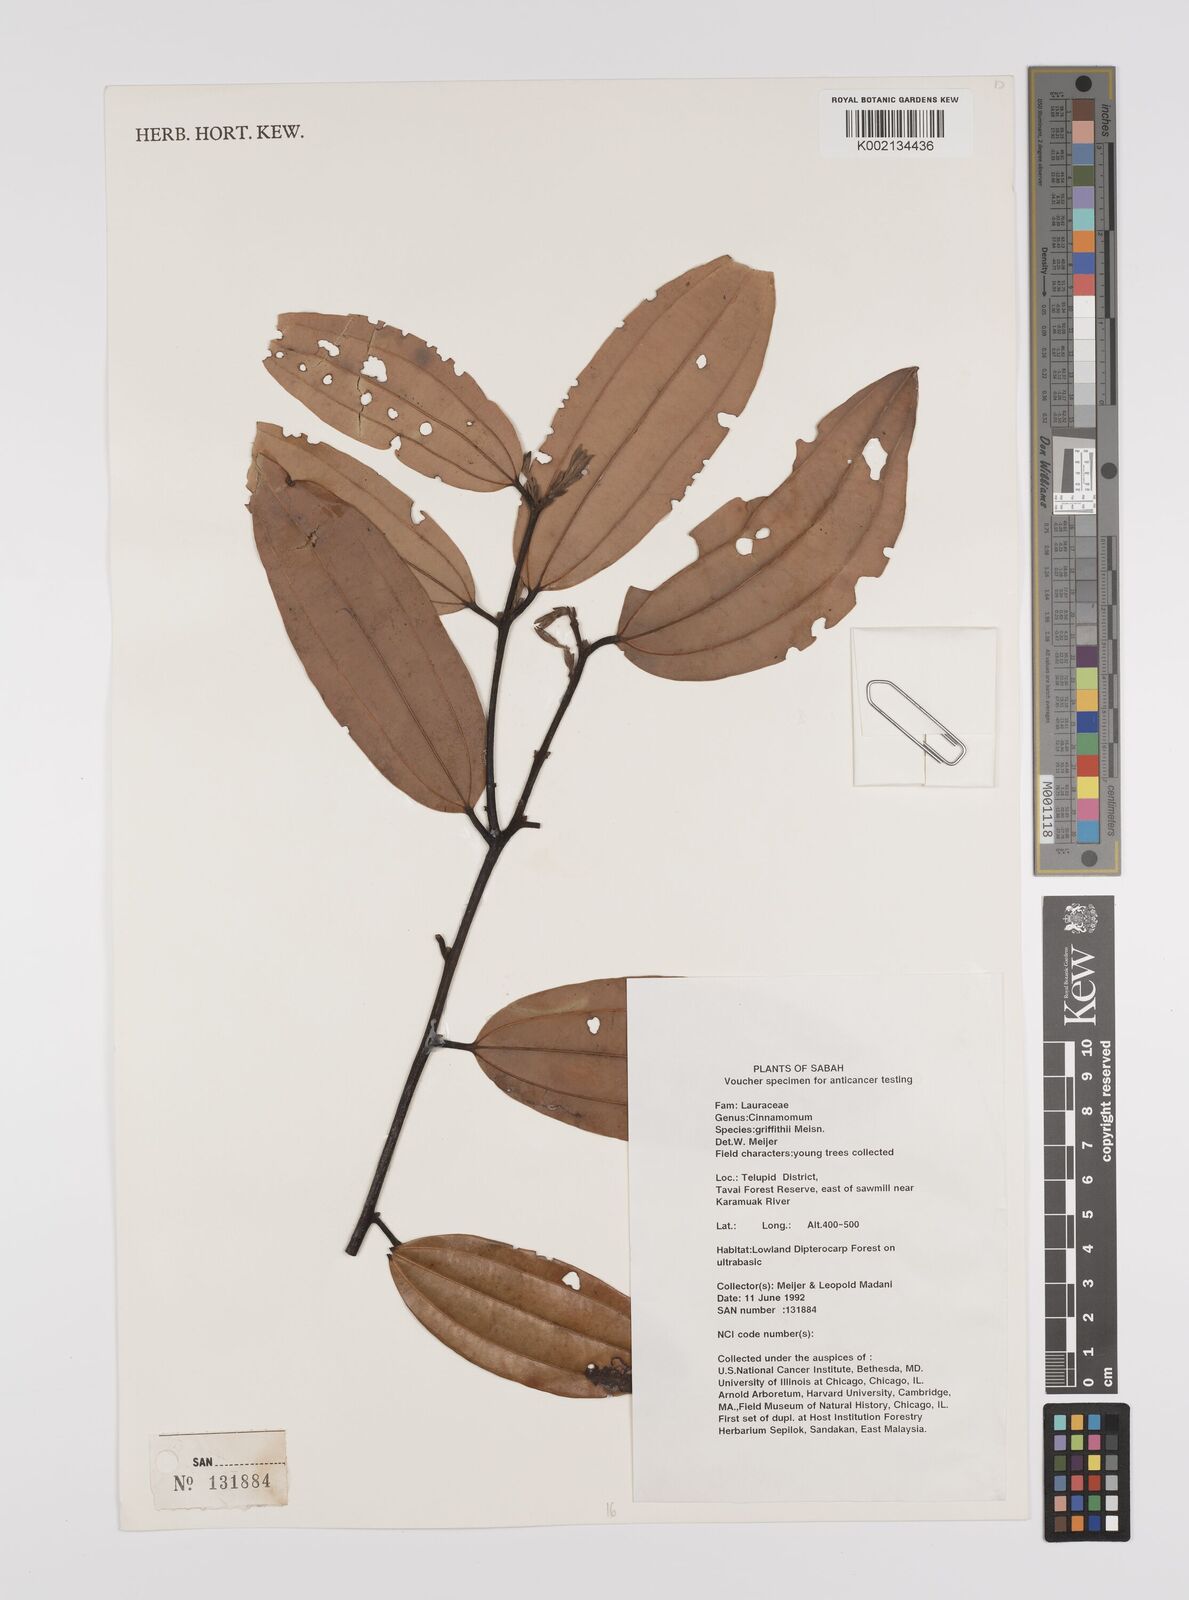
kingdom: Plantae
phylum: Tracheophyta
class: Magnoliopsida
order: Laurales
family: Lauraceae
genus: Cinnamomum
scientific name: Cinnamomum iners
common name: Wild cinnamon
